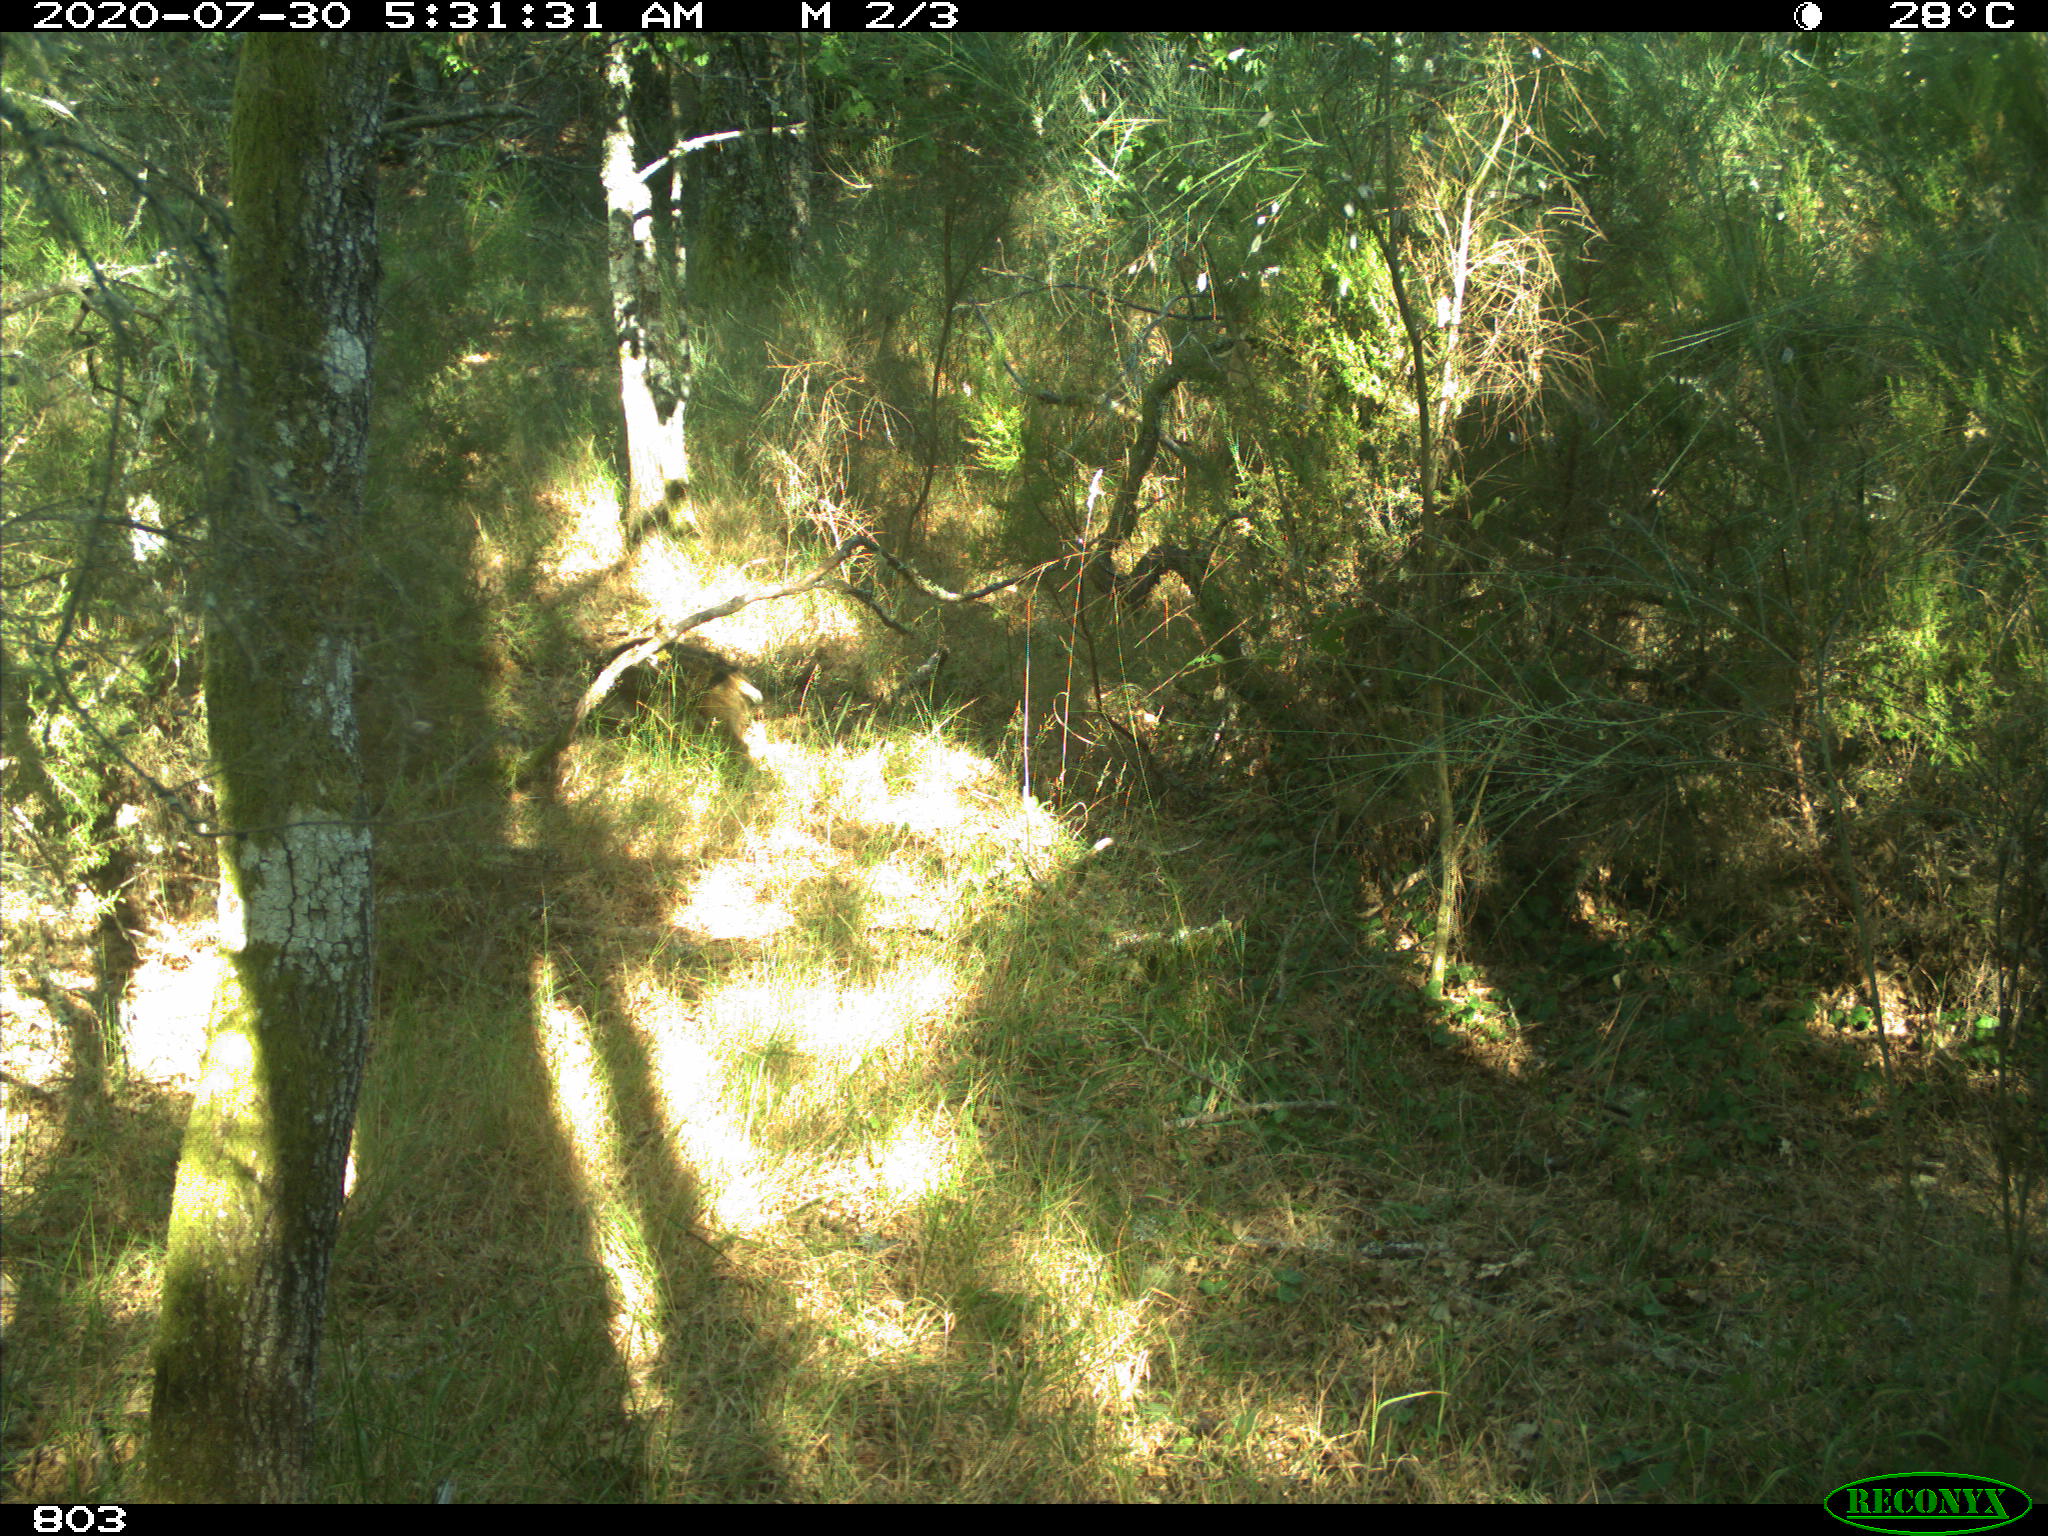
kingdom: Animalia
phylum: Chordata
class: Mammalia
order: Artiodactyla
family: Suidae
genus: Sus
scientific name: Sus scrofa
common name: Wild boar
